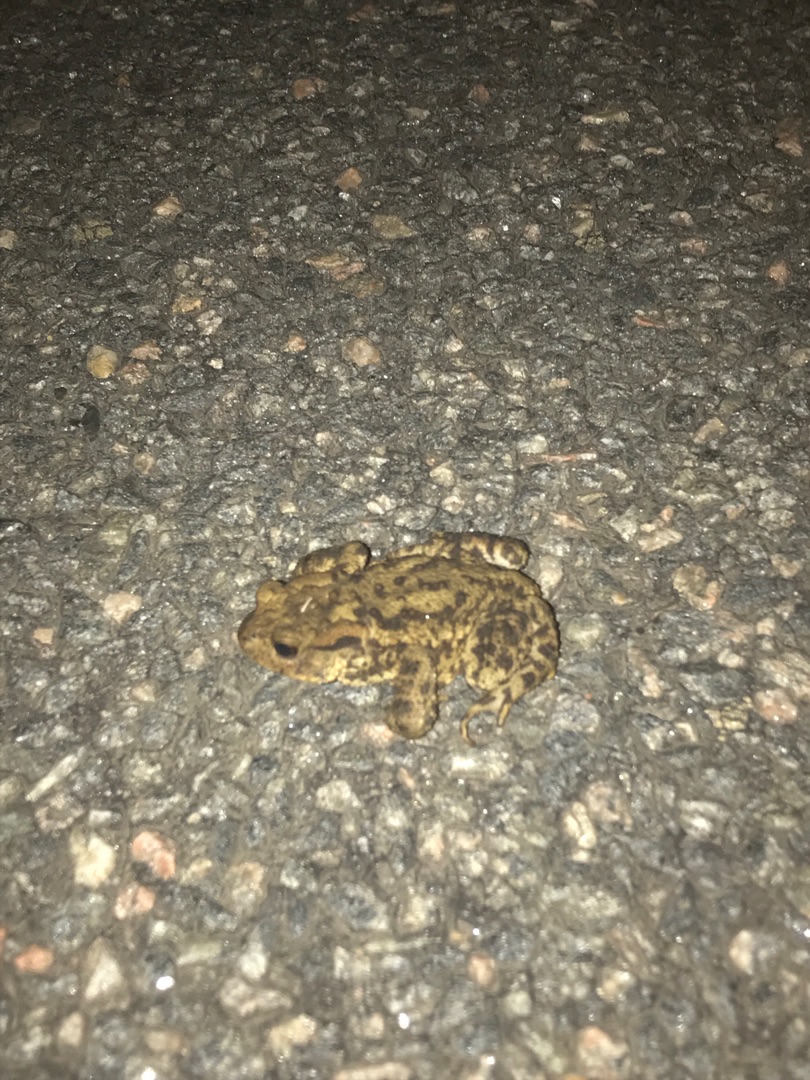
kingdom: Animalia
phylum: Chordata
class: Amphibia
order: Anura
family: Bufonidae
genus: Bufo
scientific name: Bufo bufo
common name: Skrubtudse
